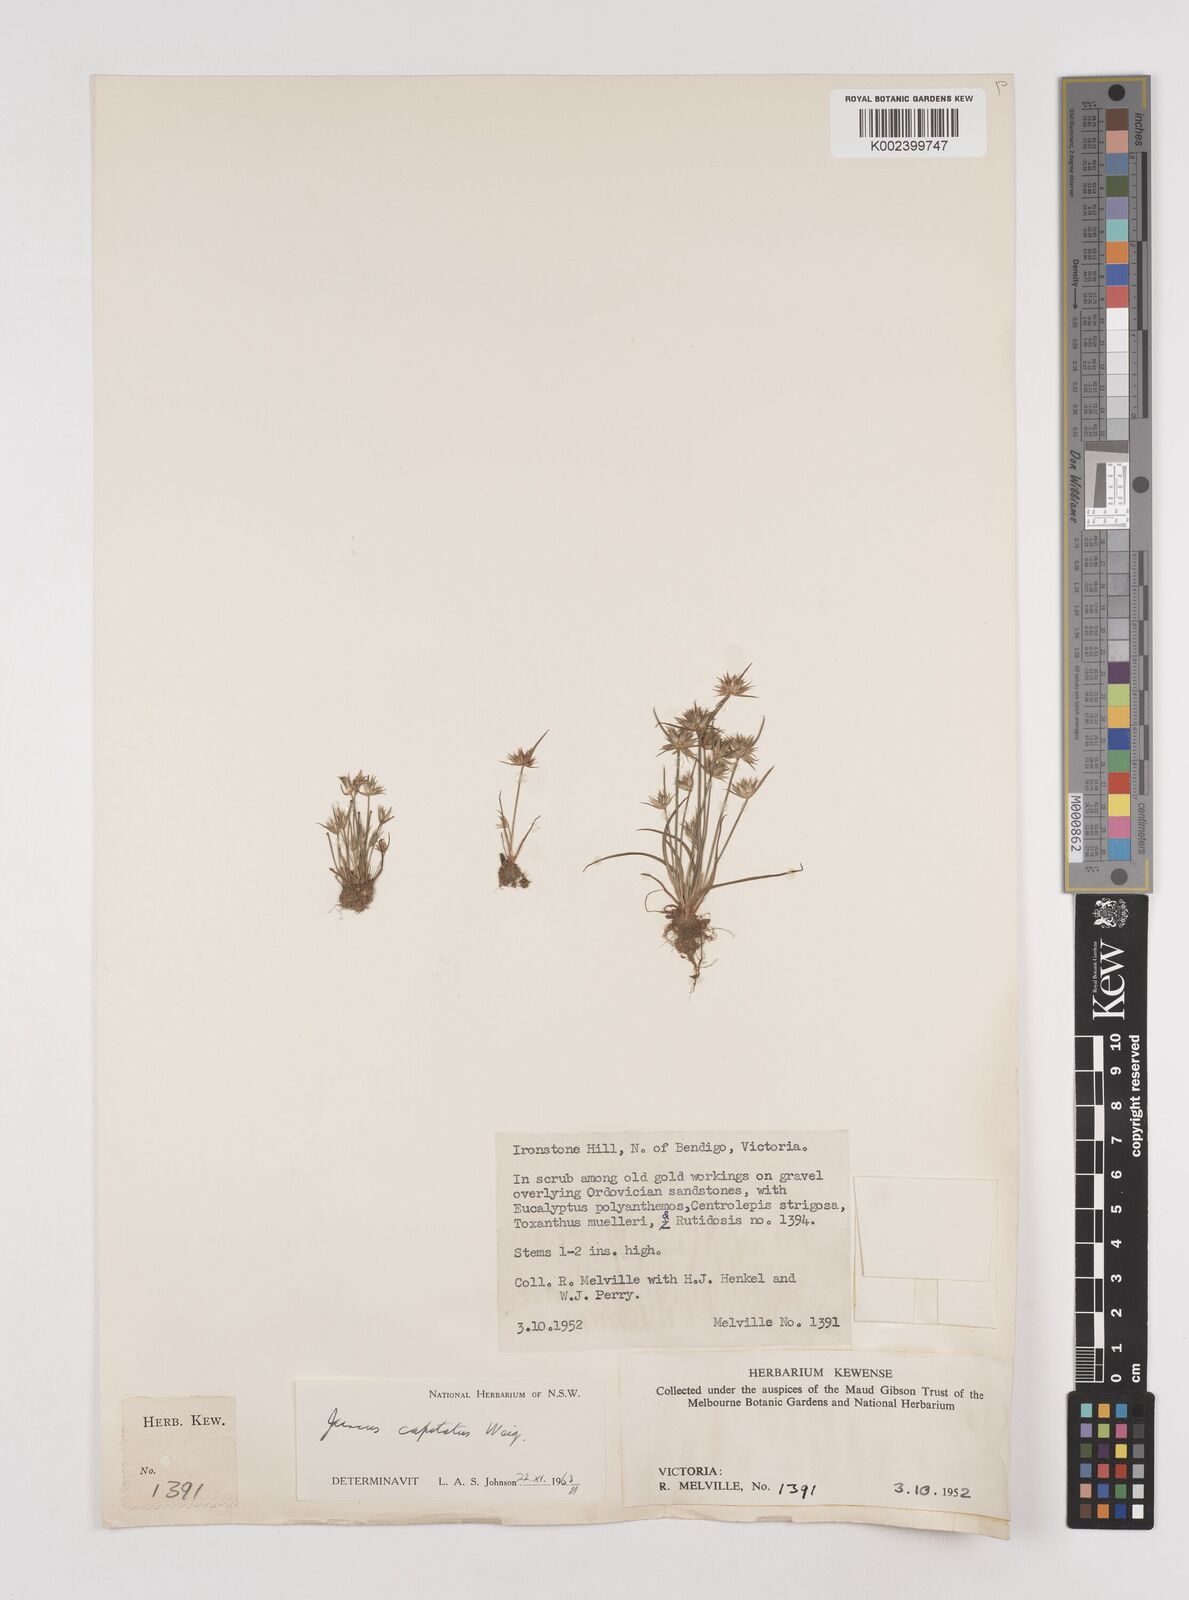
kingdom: Plantae
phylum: Tracheophyta
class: Liliopsida
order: Poales
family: Juncaceae
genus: Juncus
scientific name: Juncus capitatus
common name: Dwarf rush
